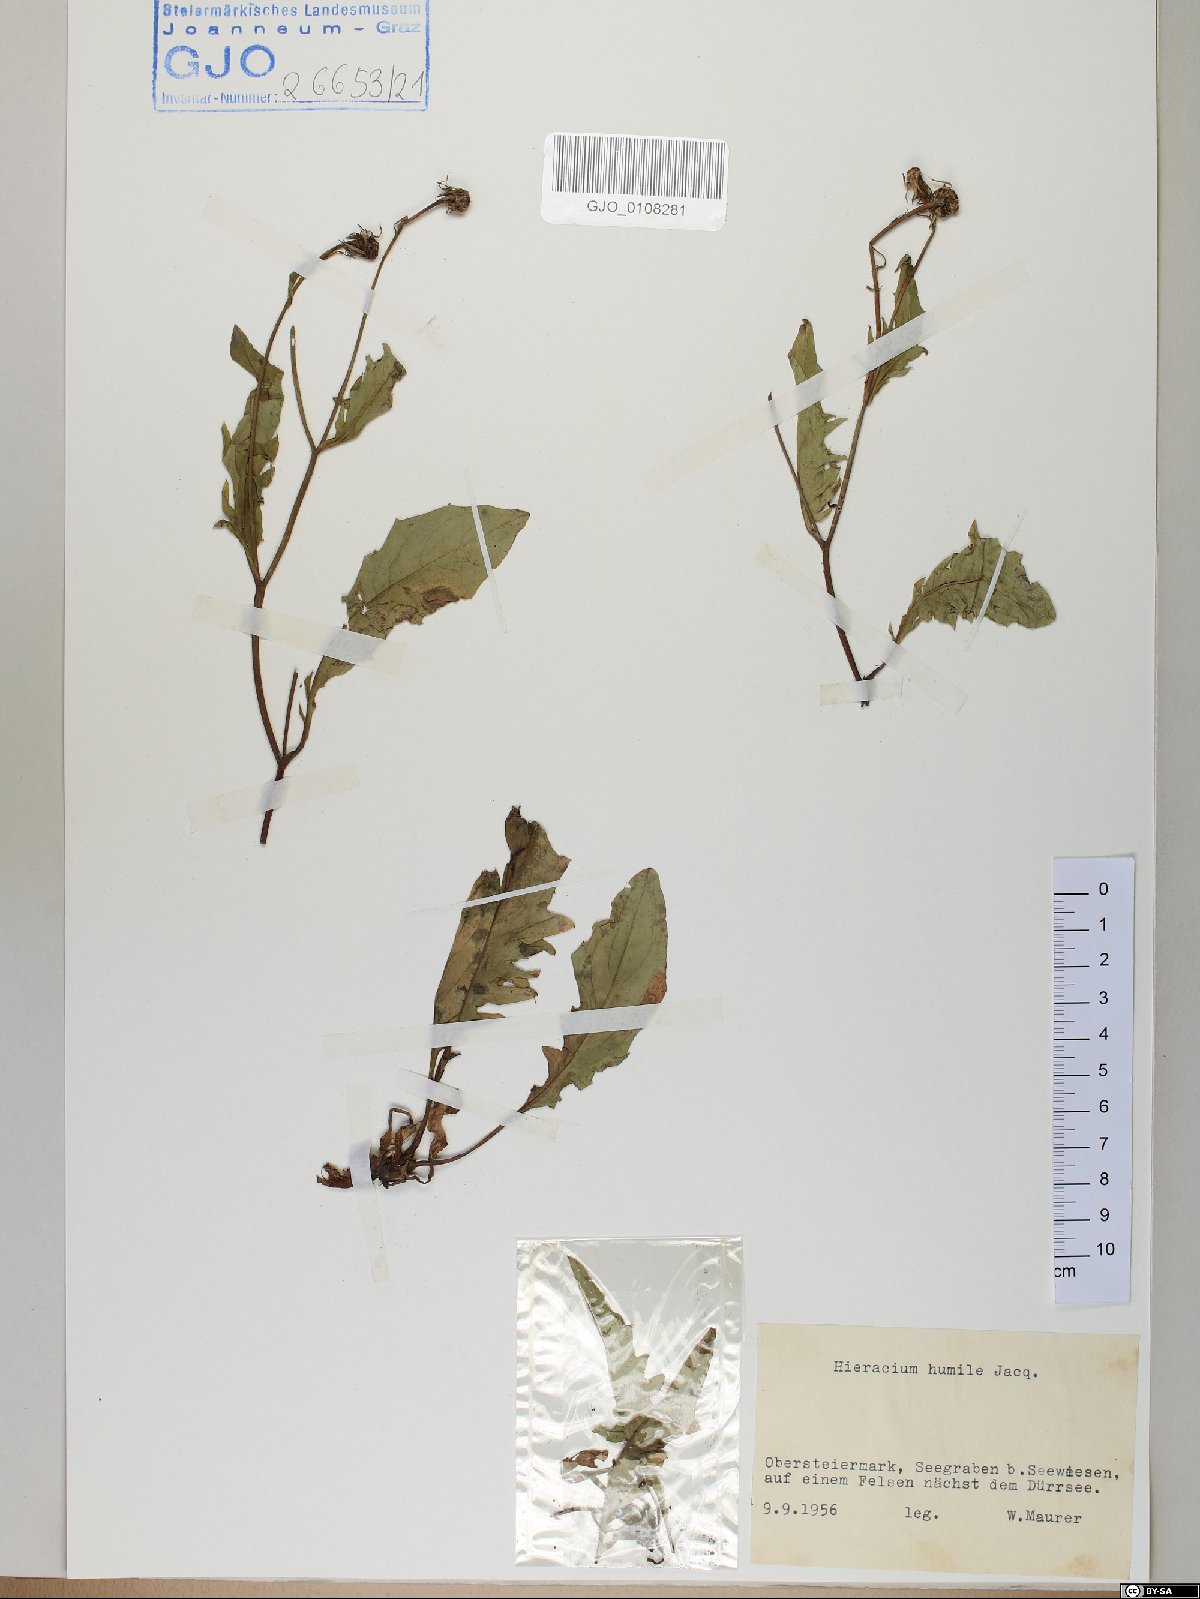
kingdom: Plantae
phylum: Tracheophyta
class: Magnoliopsida
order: Asterales
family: Asteraceae
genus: Hieracium
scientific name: Hieracium humile
